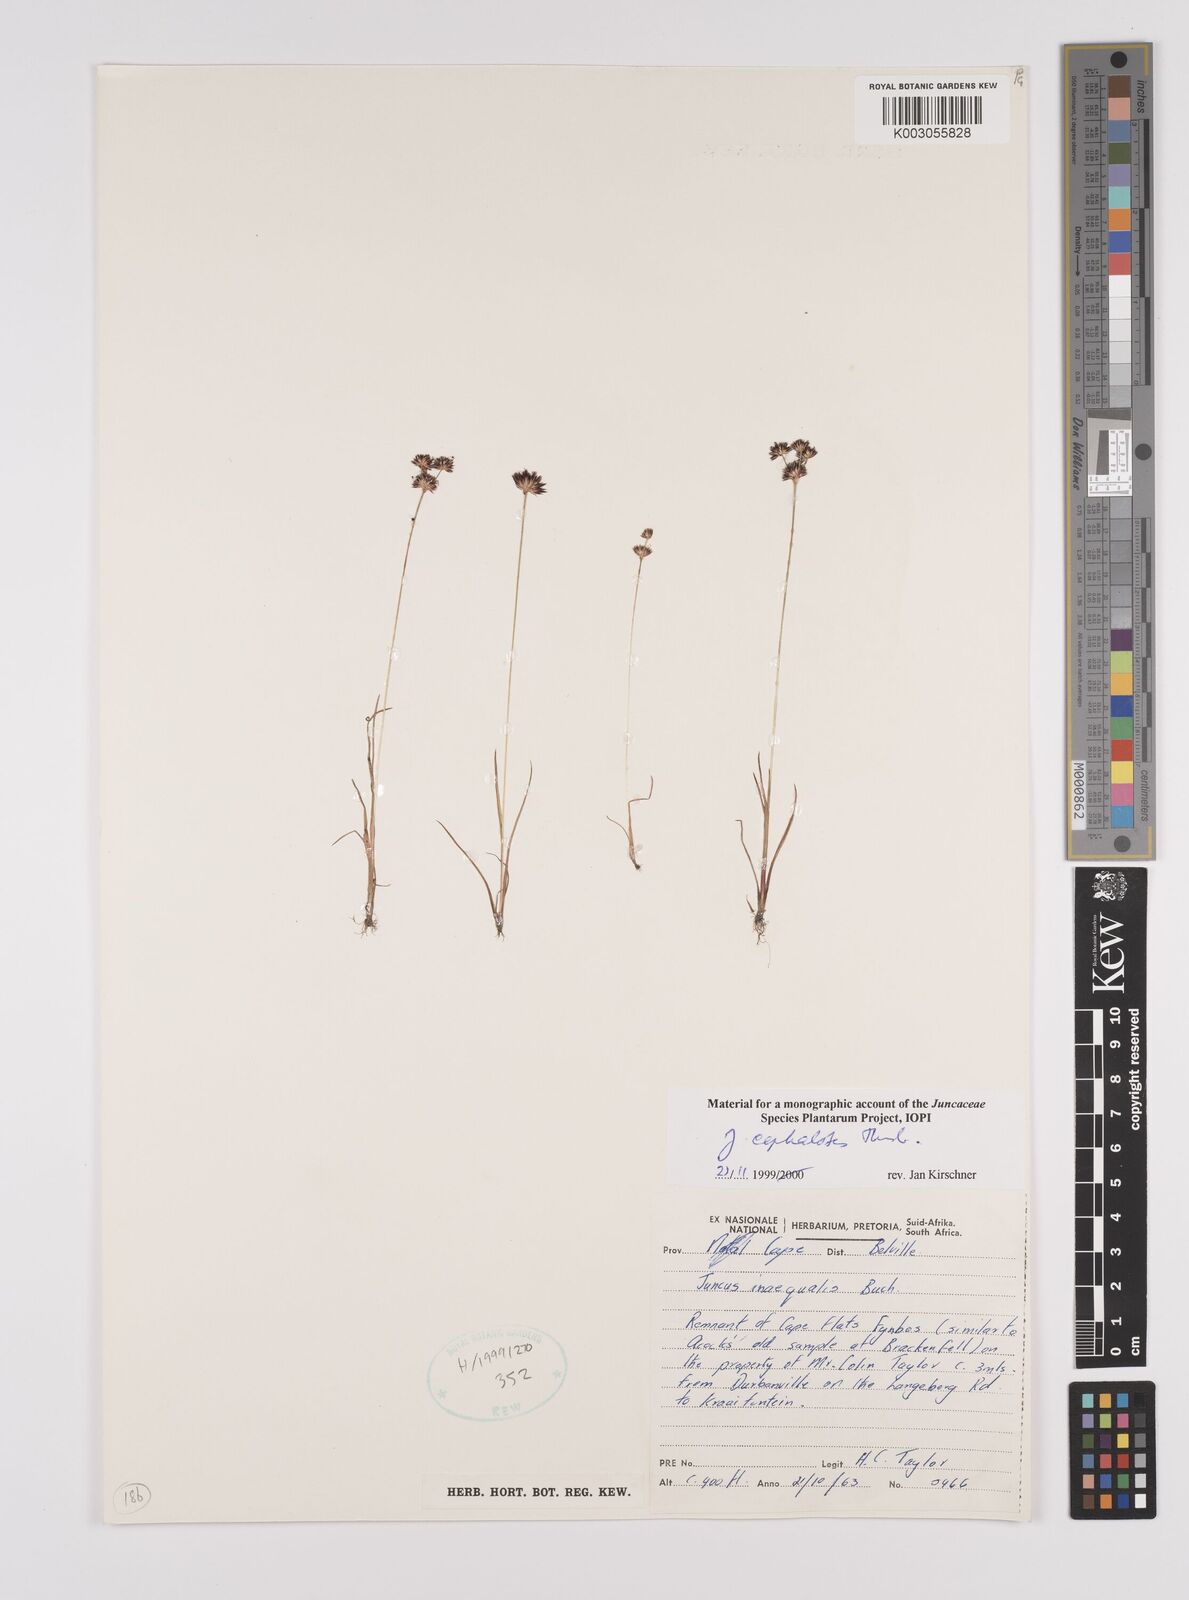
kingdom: Plantae
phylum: Tracheophyta
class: Liliopsida
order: Poales
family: Juncaceae
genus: Juncus
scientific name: Juncus cephalotes
